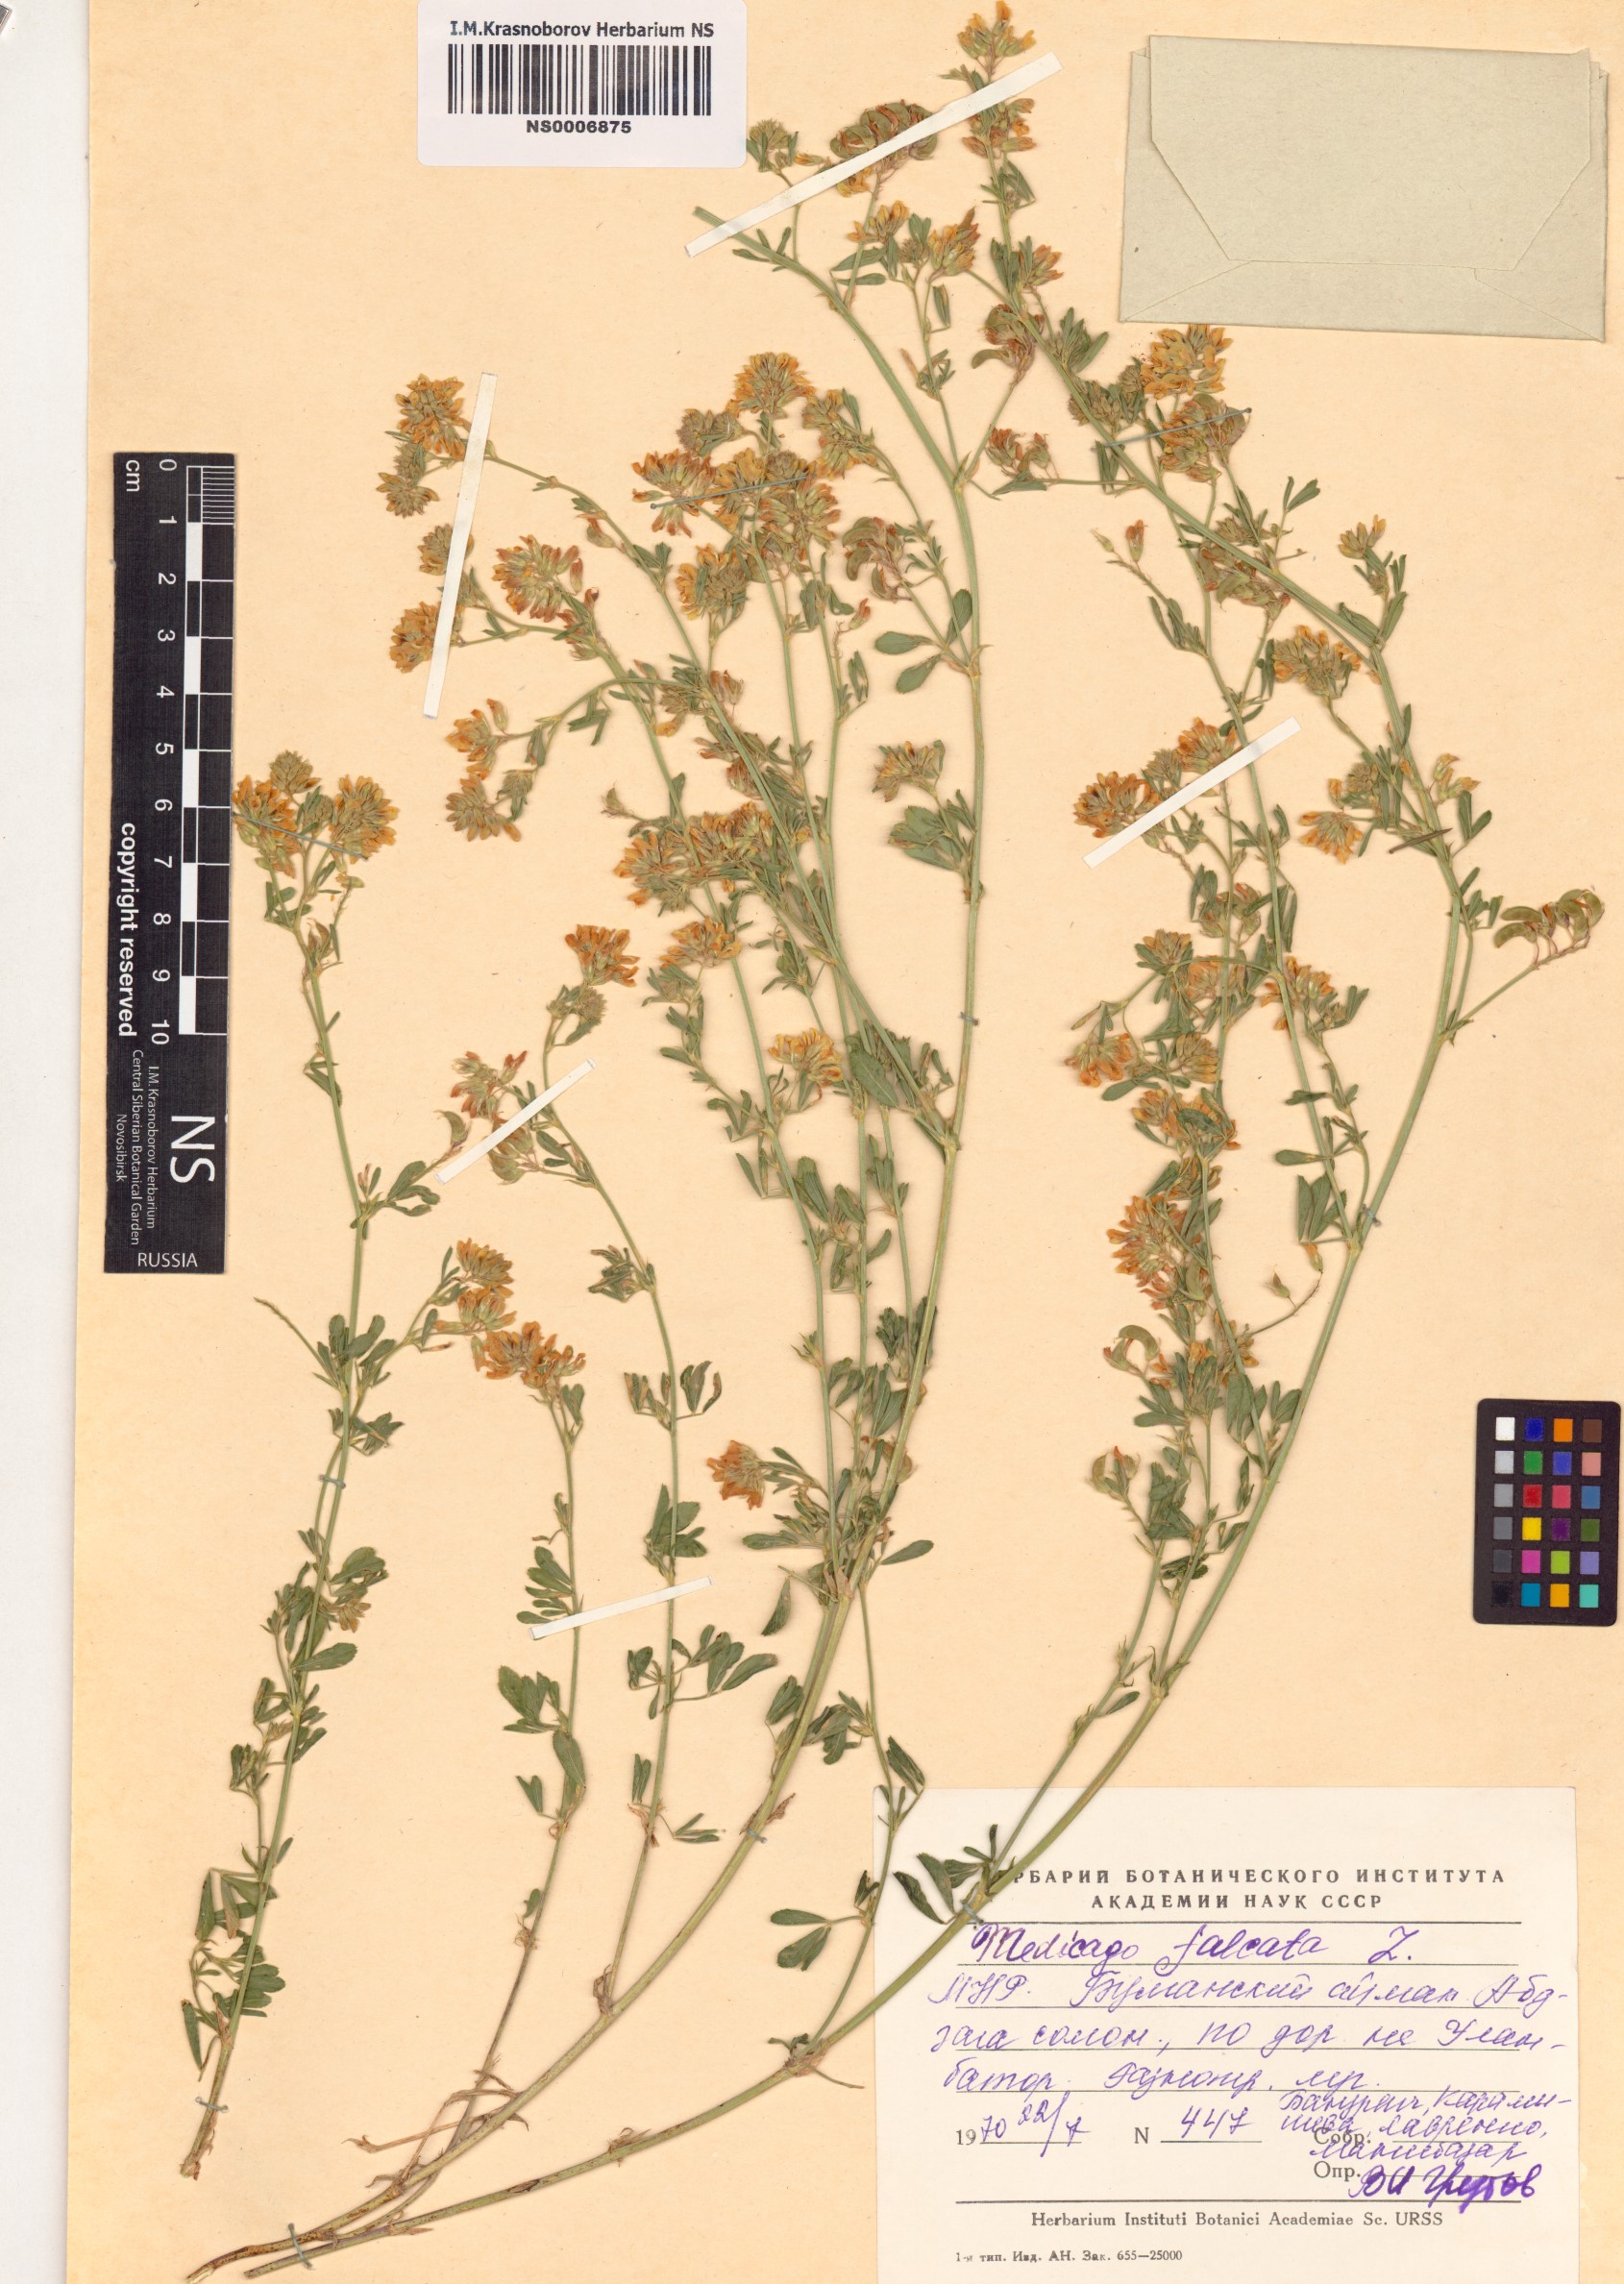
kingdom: Plantae
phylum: Tracheophyta
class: Magnoliopsida
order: Fabales
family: Fabaceae
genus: Medicago
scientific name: Medicago falcata
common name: Sickle medick
